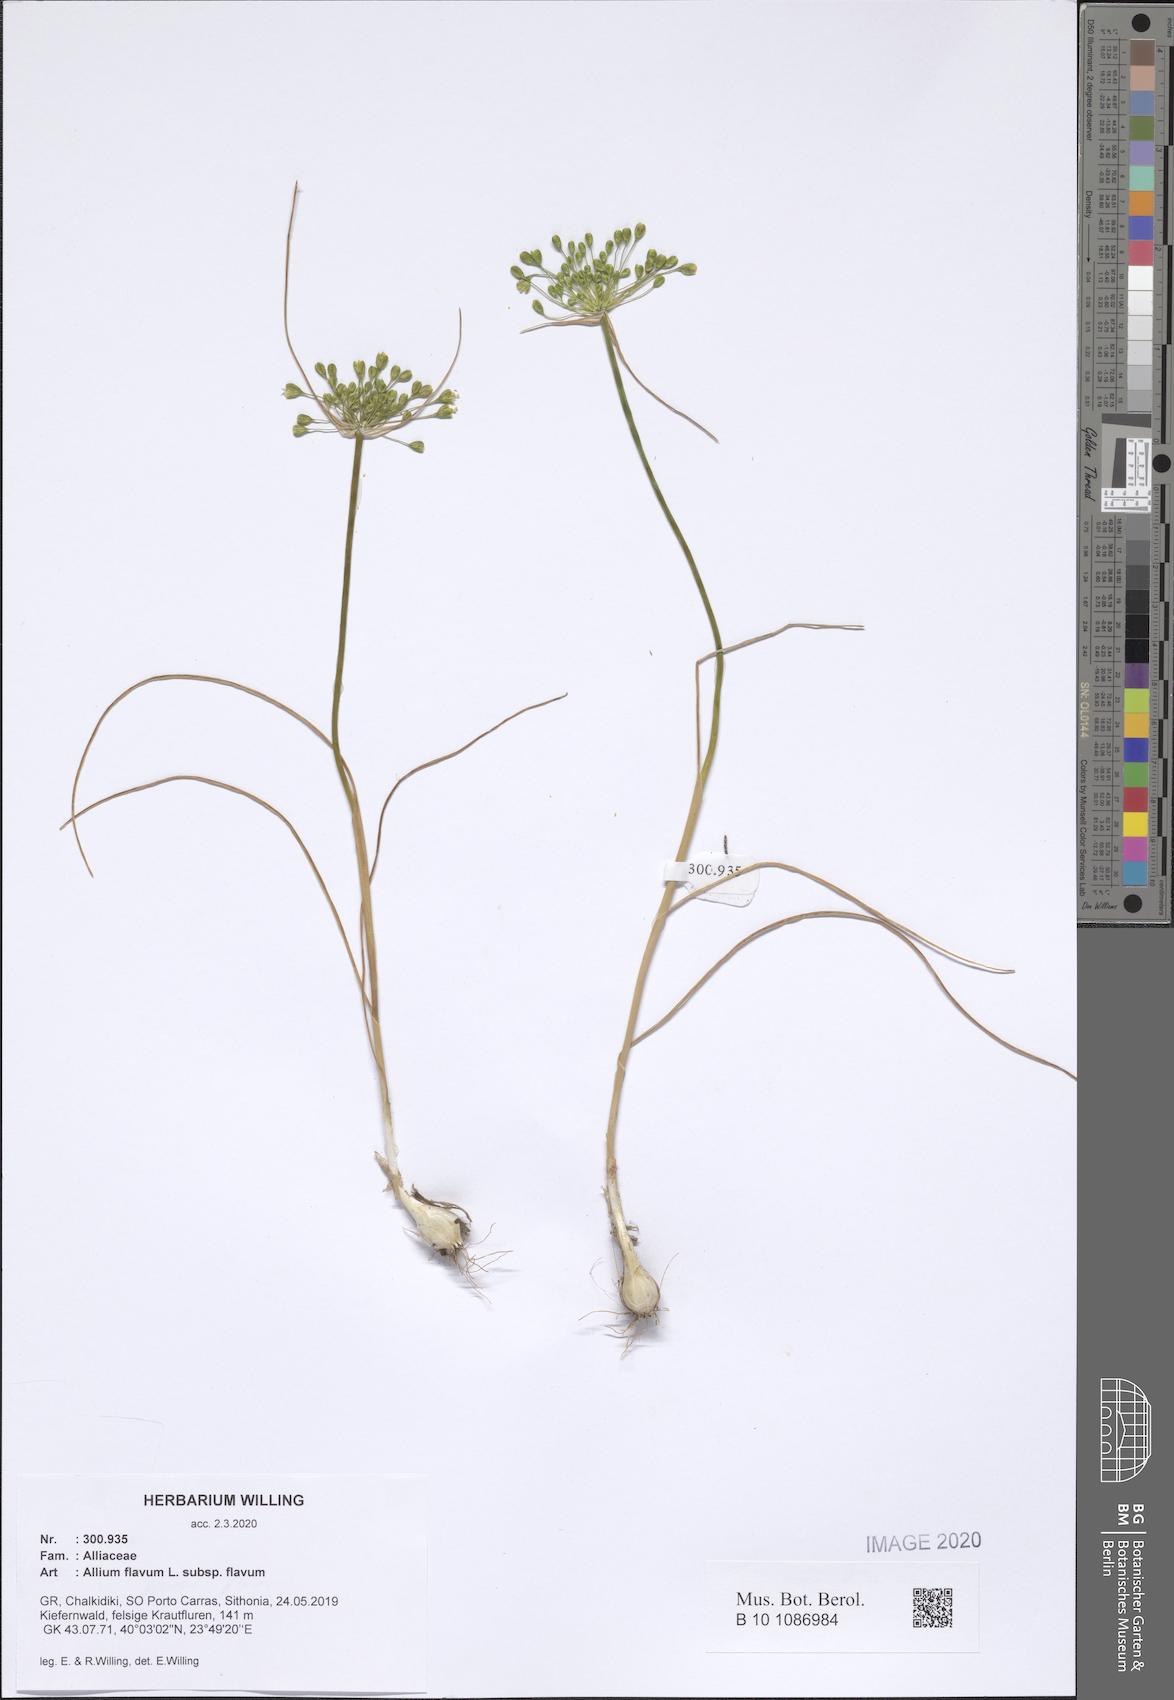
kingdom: Plantae
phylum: Tracheophyta
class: Liliopsida
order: Asparagales
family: Amaryllidaceae
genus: Allium
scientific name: Allium flavum
